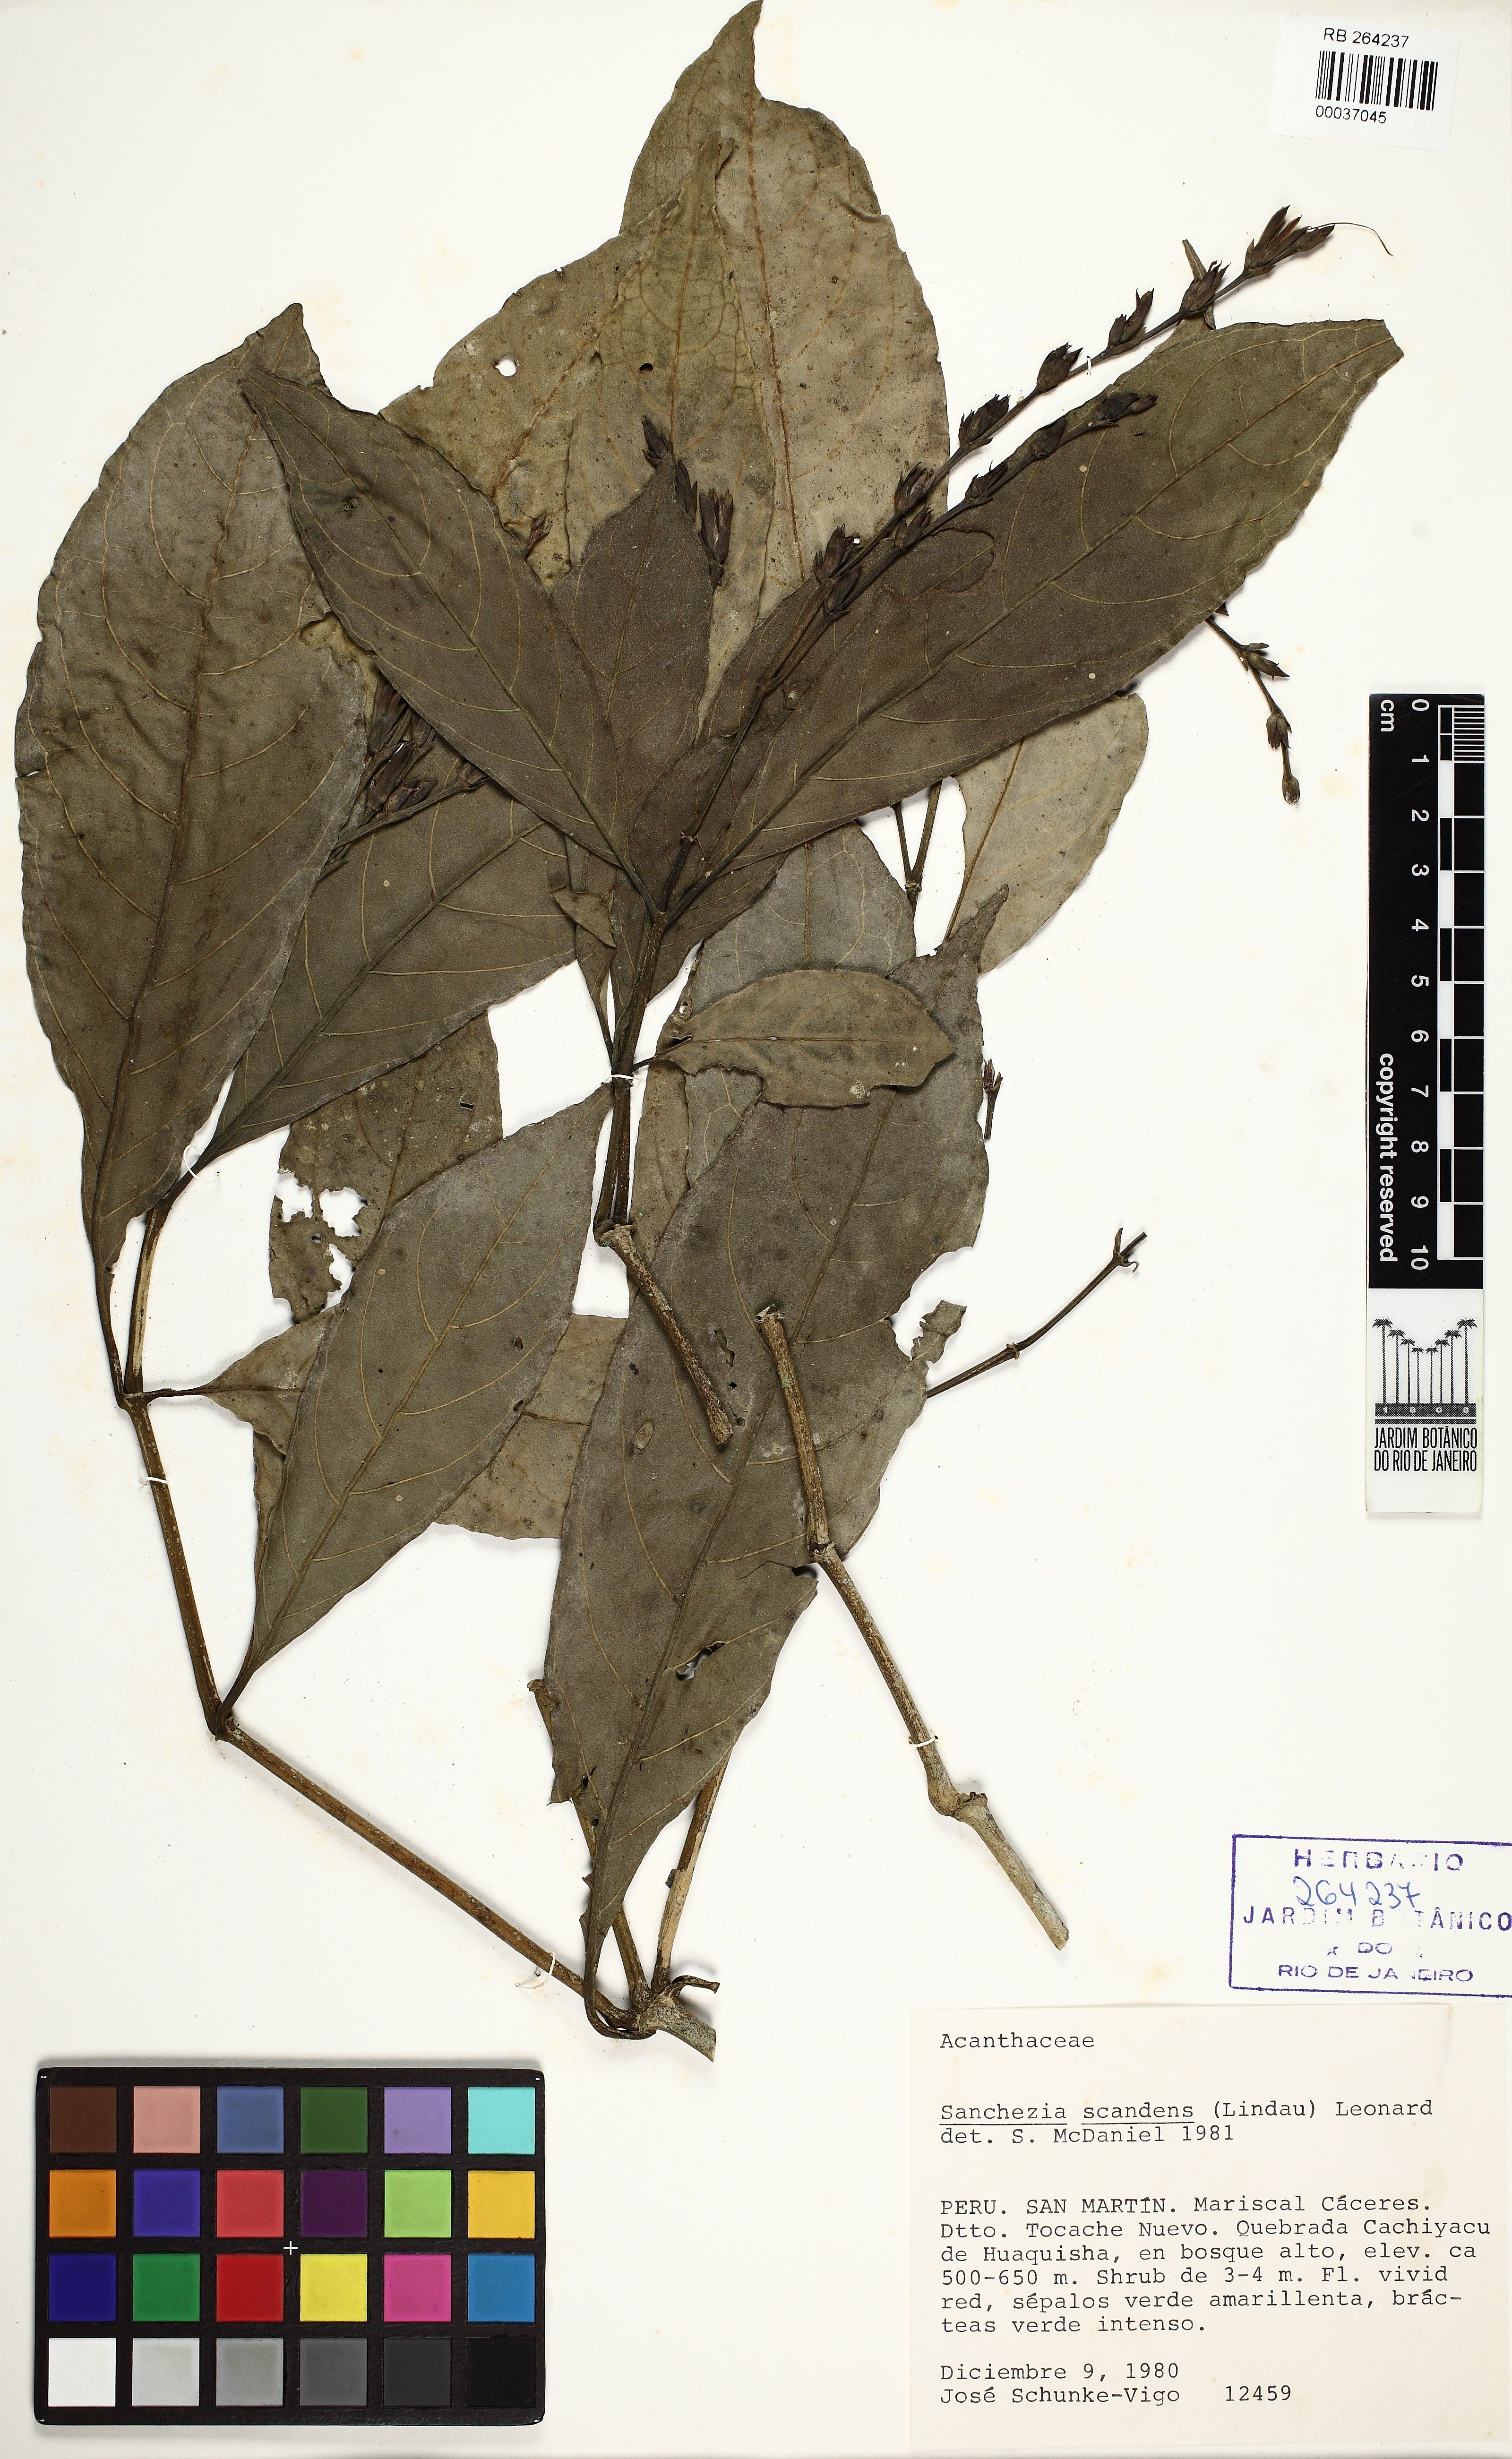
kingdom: Plantae
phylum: Tracheophyta
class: Magnoliopsida
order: Lamiales
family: Acanthaceae
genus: Sanchezia
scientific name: Sanchezia scandens
